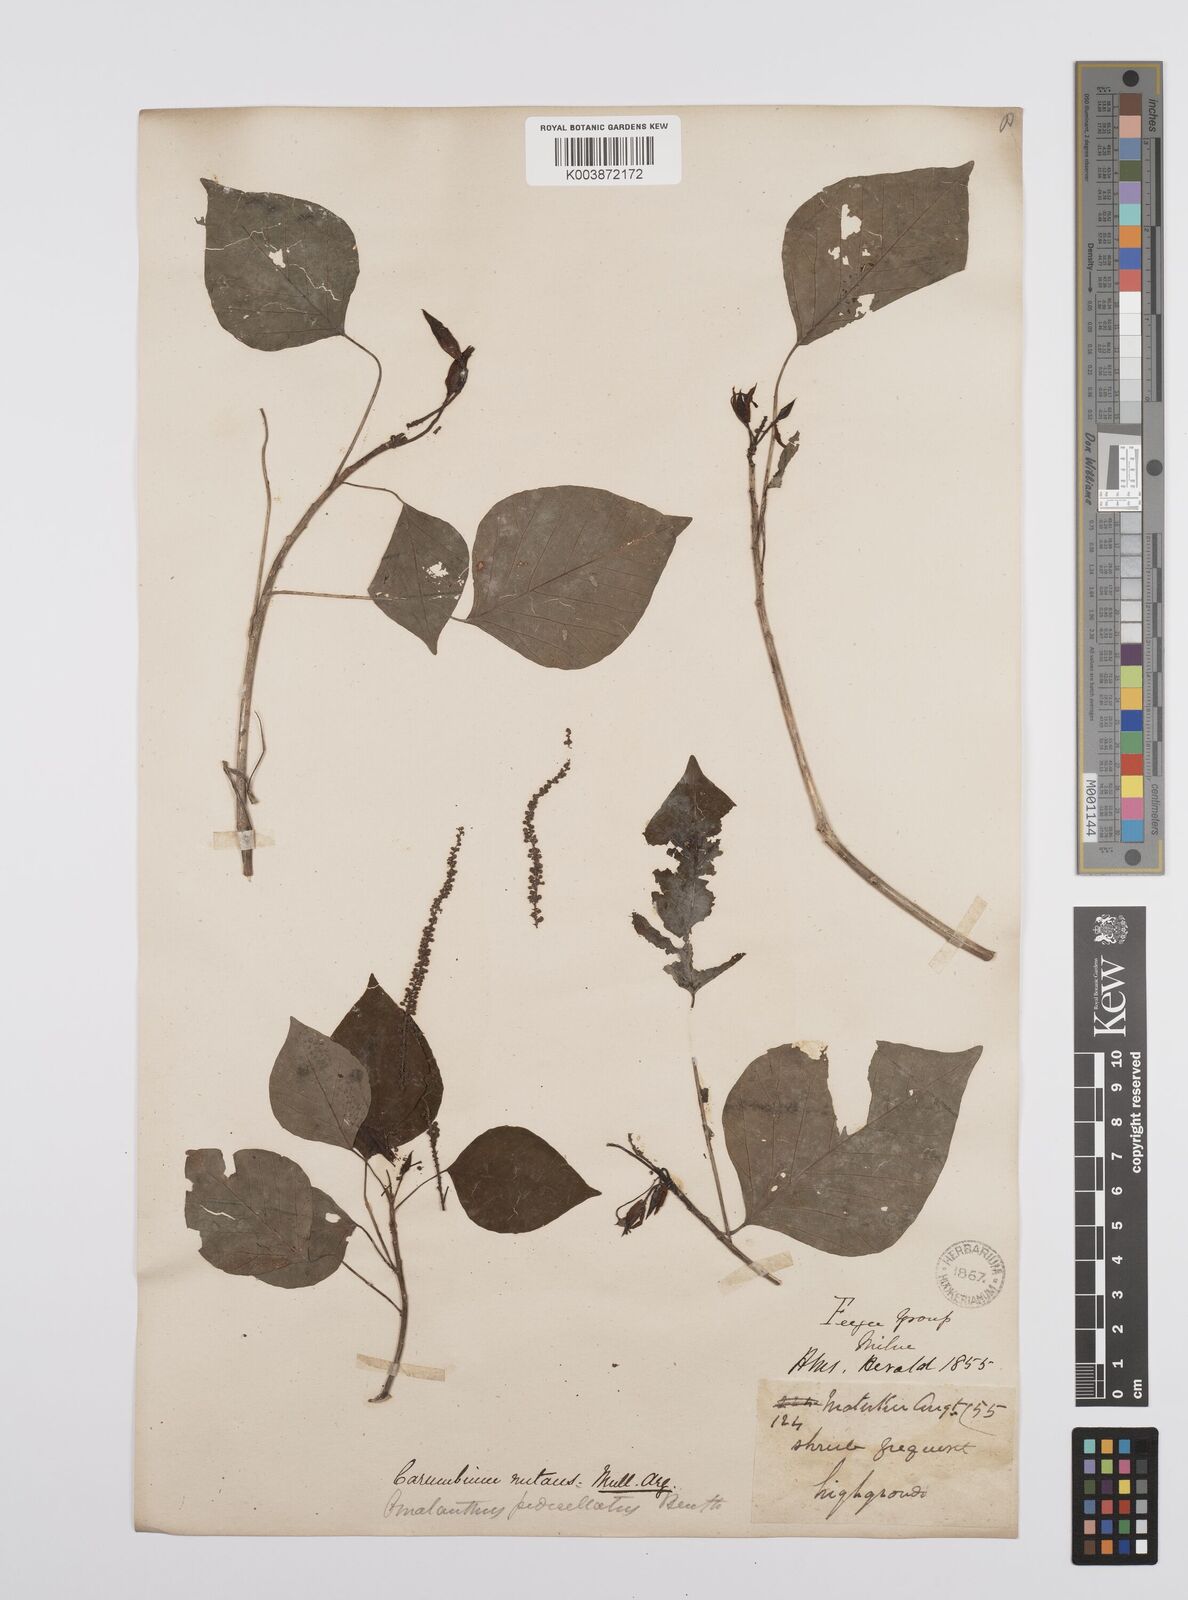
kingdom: Plantae
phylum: Tracheophyta
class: Magnoliopsida
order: Malpighiales
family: Euphorbiaceae
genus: Homalanthus
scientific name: Homalanthus nutans
